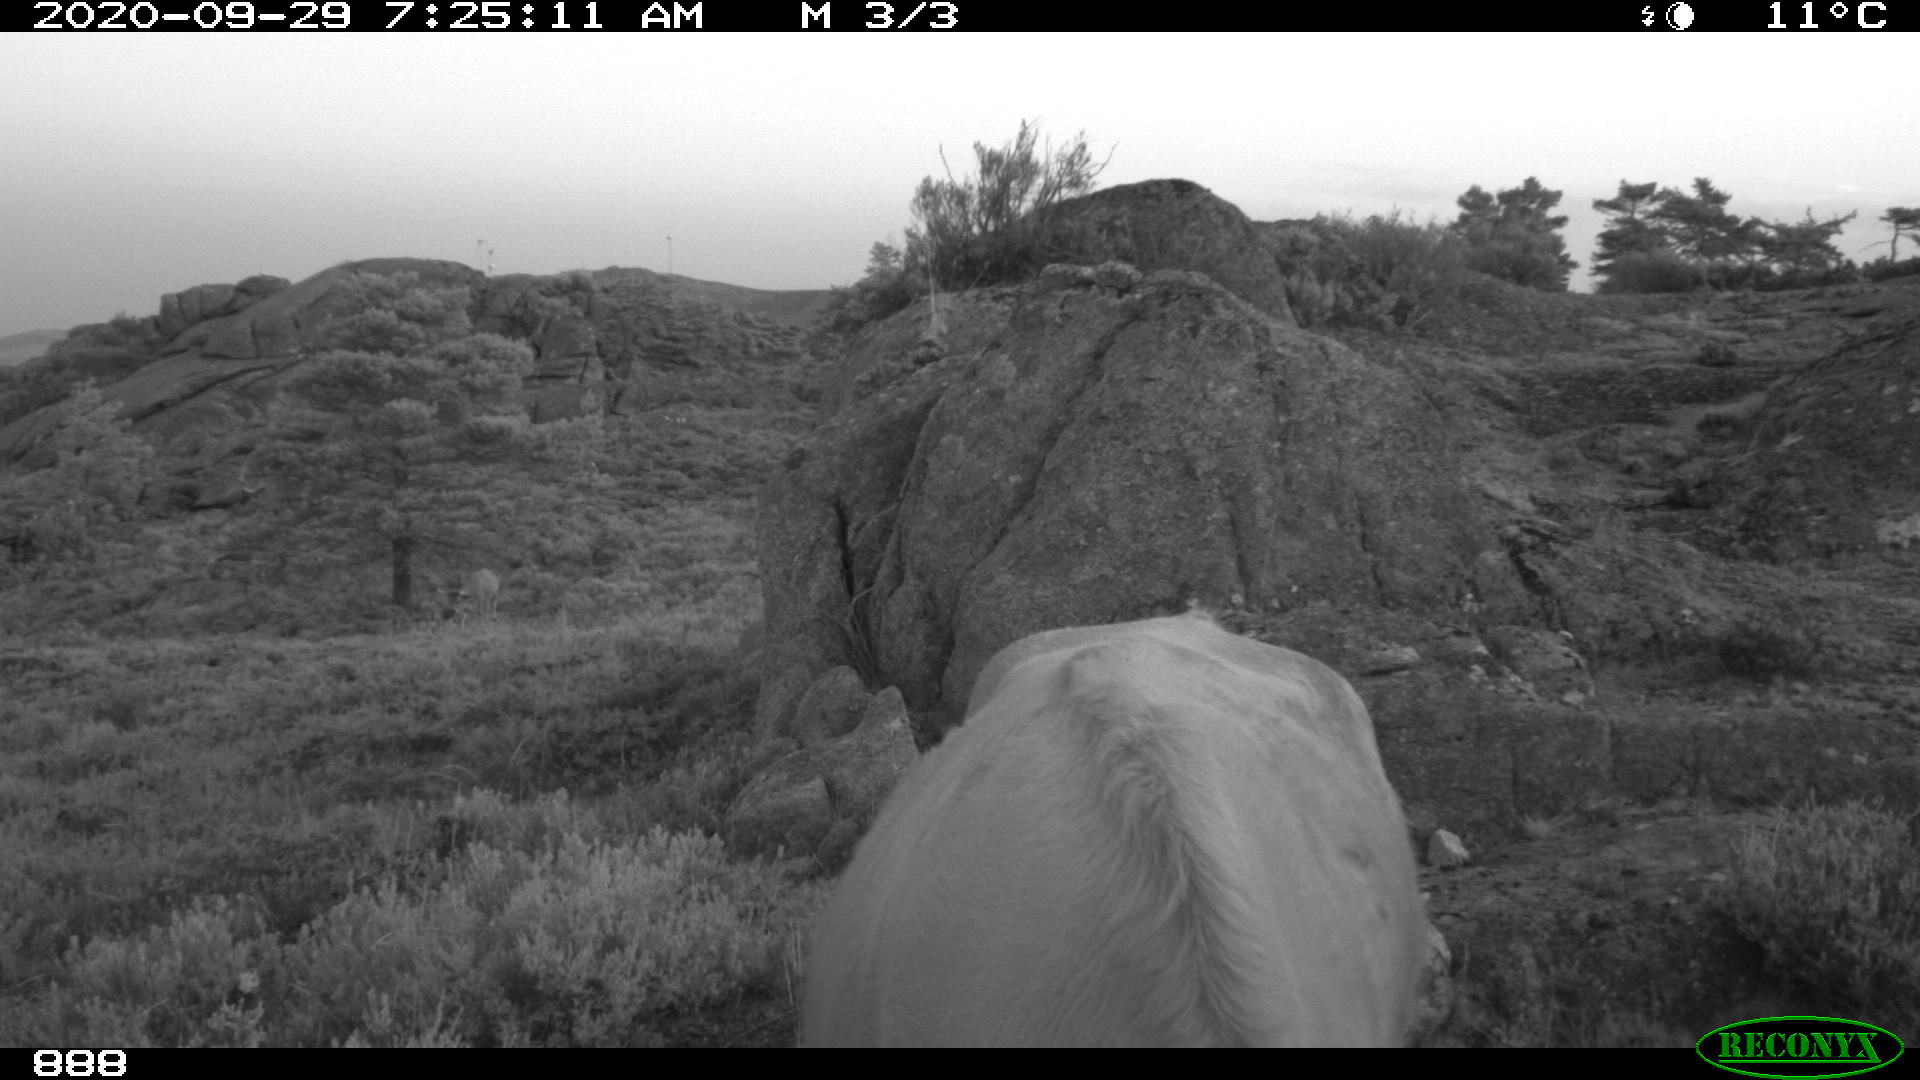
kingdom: Animalia
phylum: Chordata
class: Mammalia
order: Artiodactyla
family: Bovidae
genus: Bos
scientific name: Bos taurus
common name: Domesticated cattle
